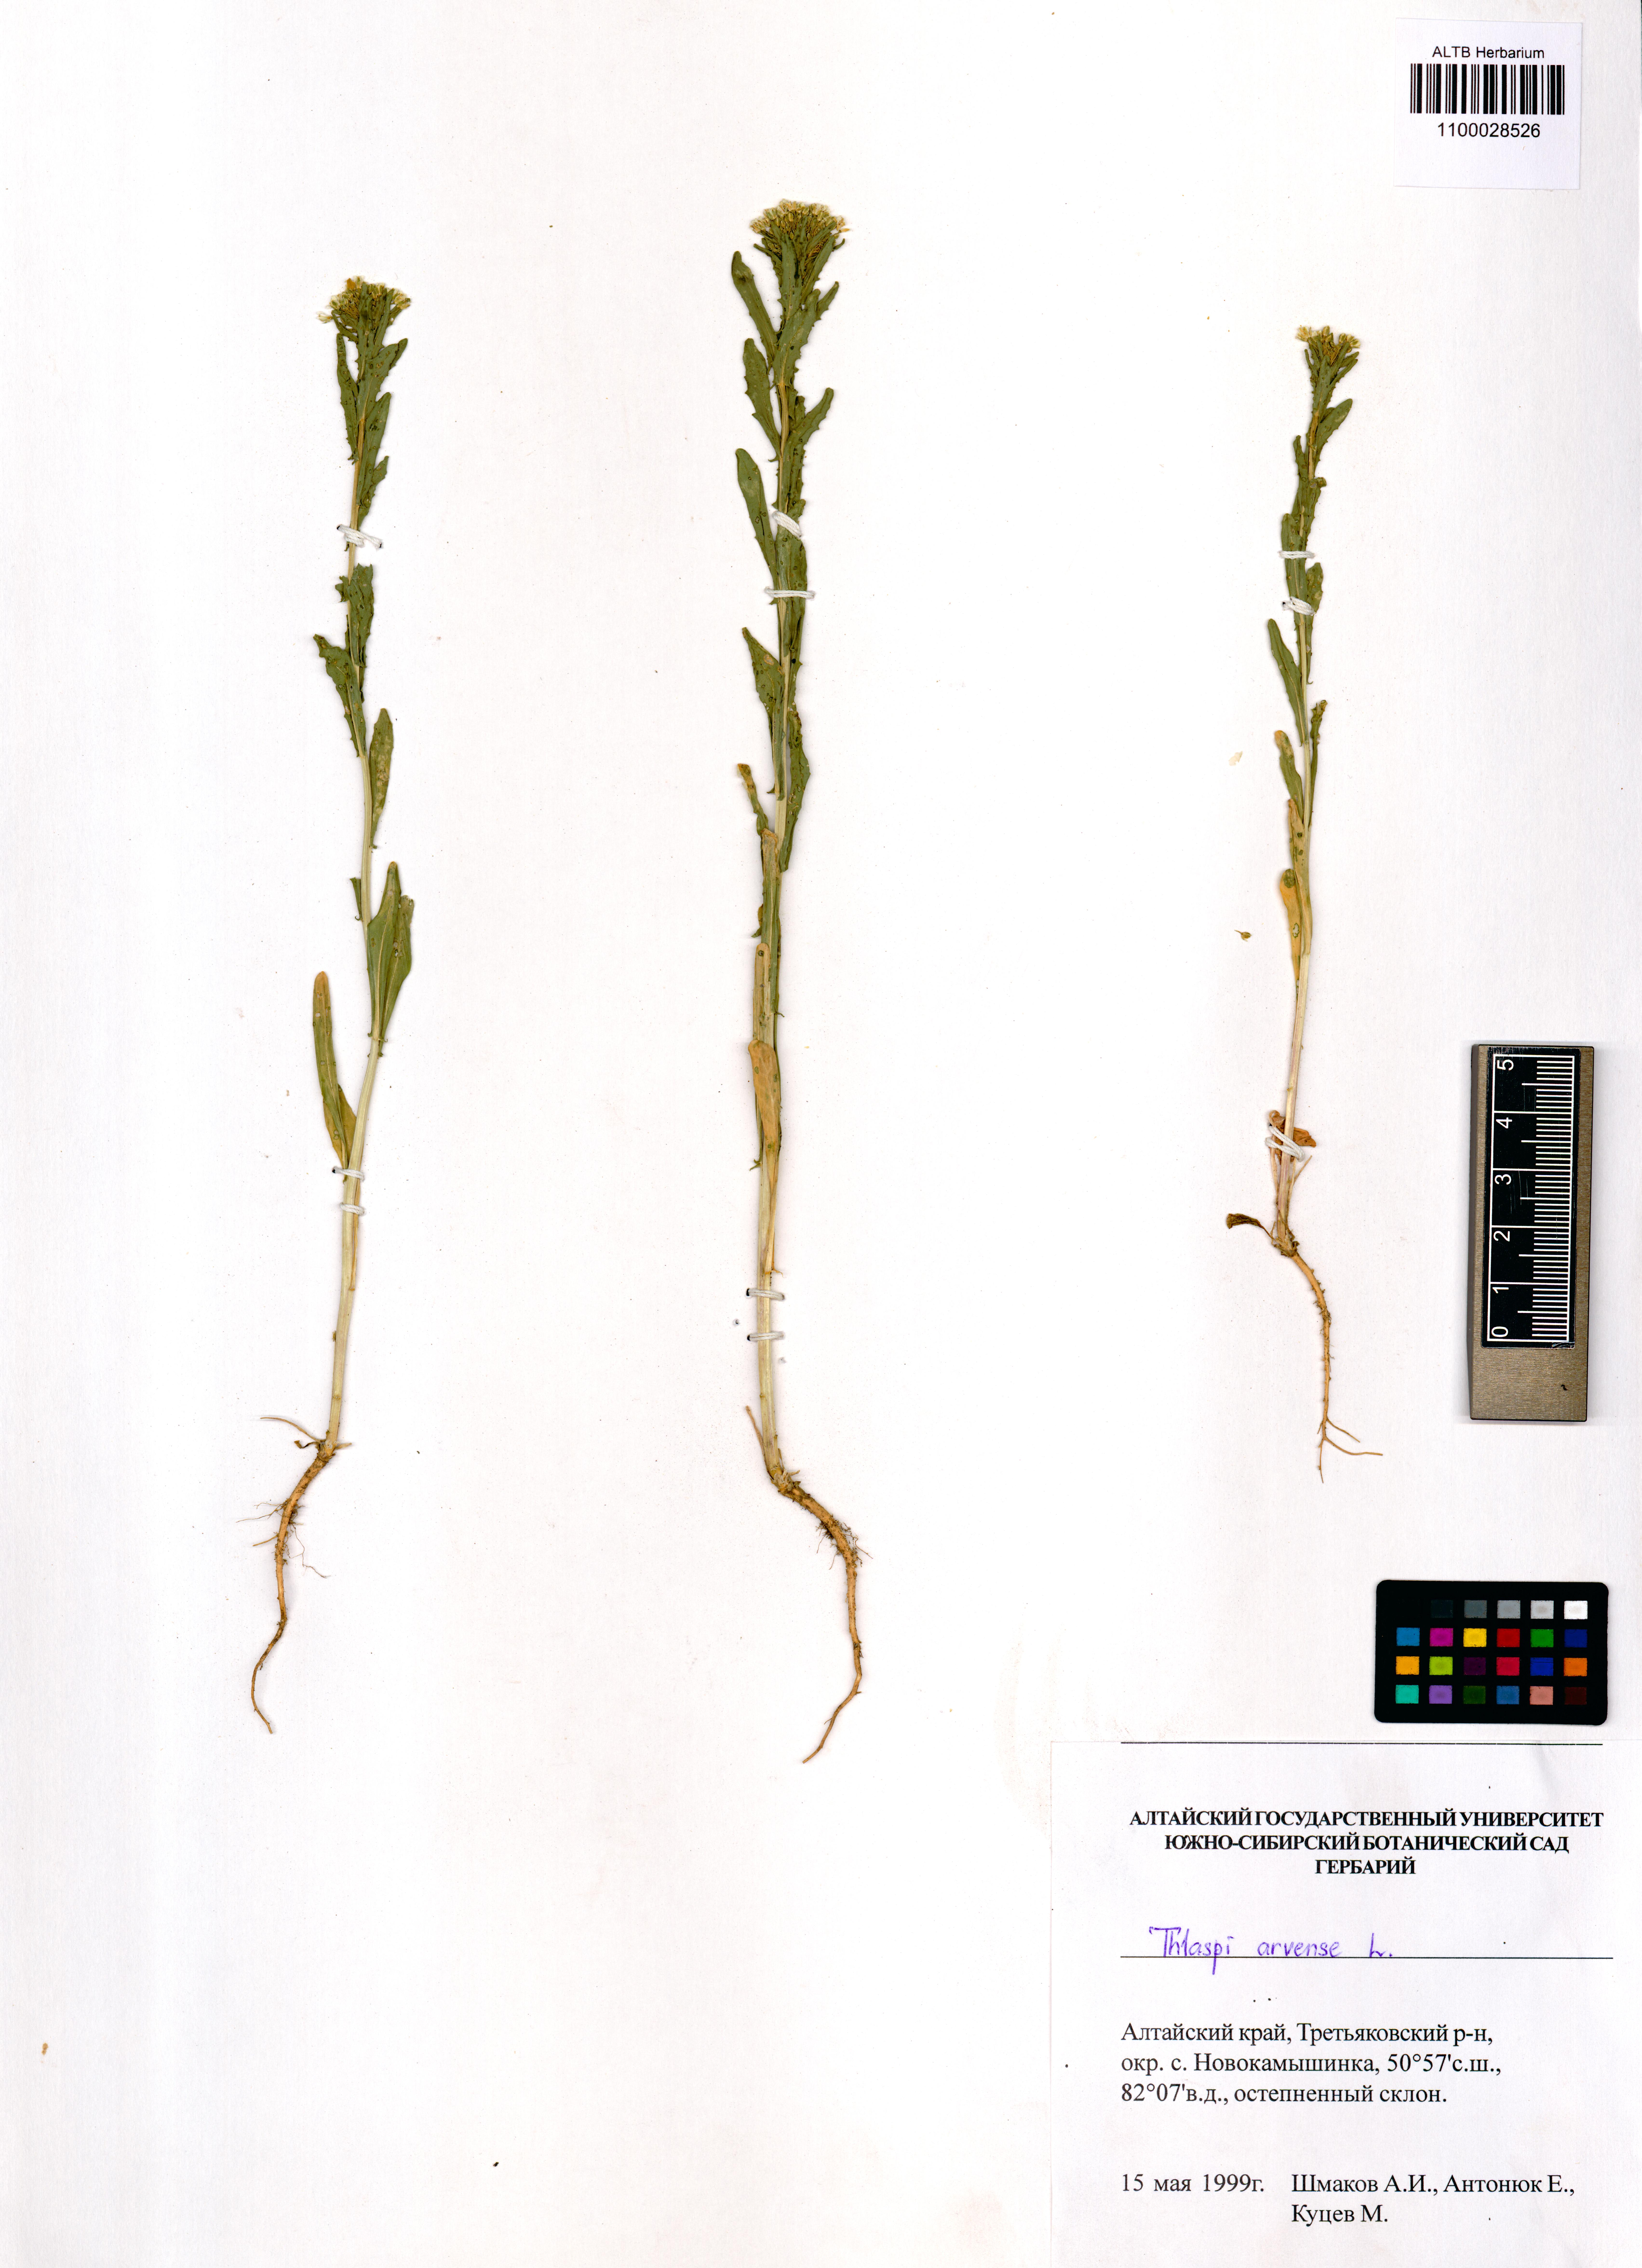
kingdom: Plantae
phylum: Tracheophyta
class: Magnoliopsida
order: Brassicales
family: Brassicaceae
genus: Thlaspi
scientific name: Thlaspi arvense
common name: Field pennycress
